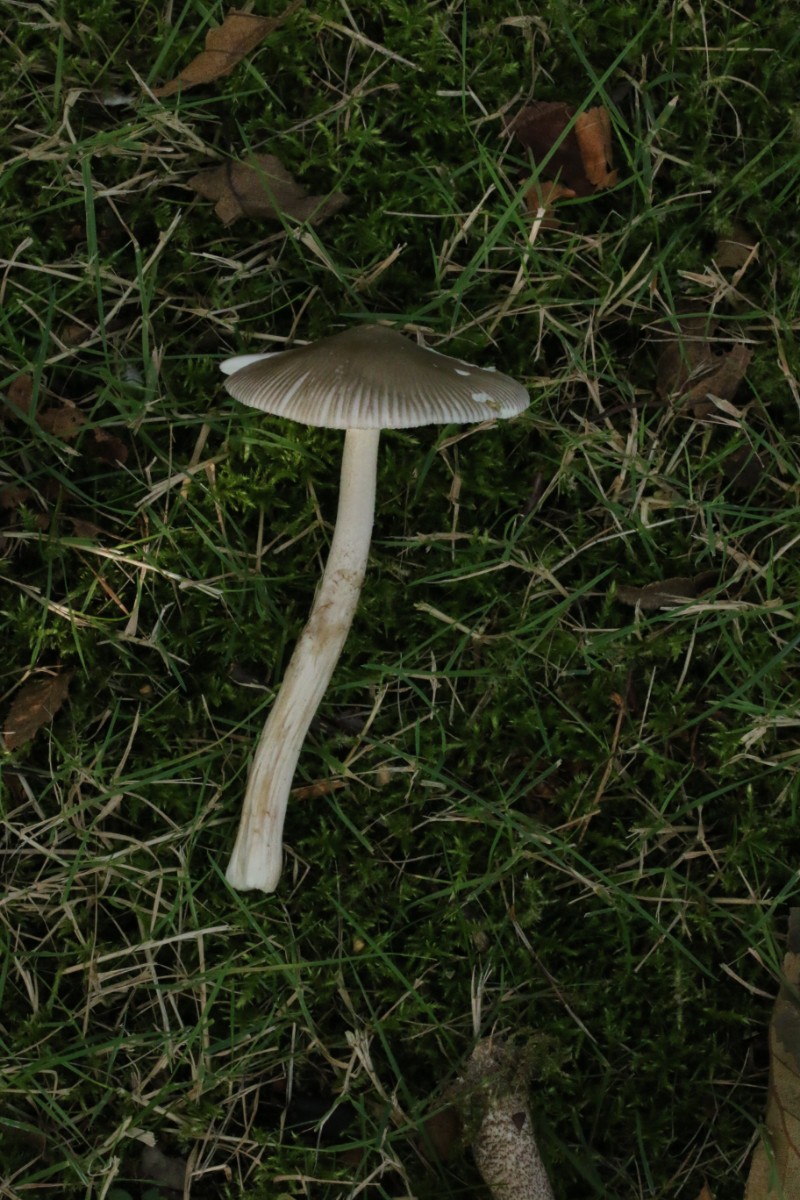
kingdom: Fungi
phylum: Basidiomycota
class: Agaricomycetes
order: Agaricales
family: Amanitaceae
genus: Amanita
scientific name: Amanita vaginata
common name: grå kam-fluesvamp
